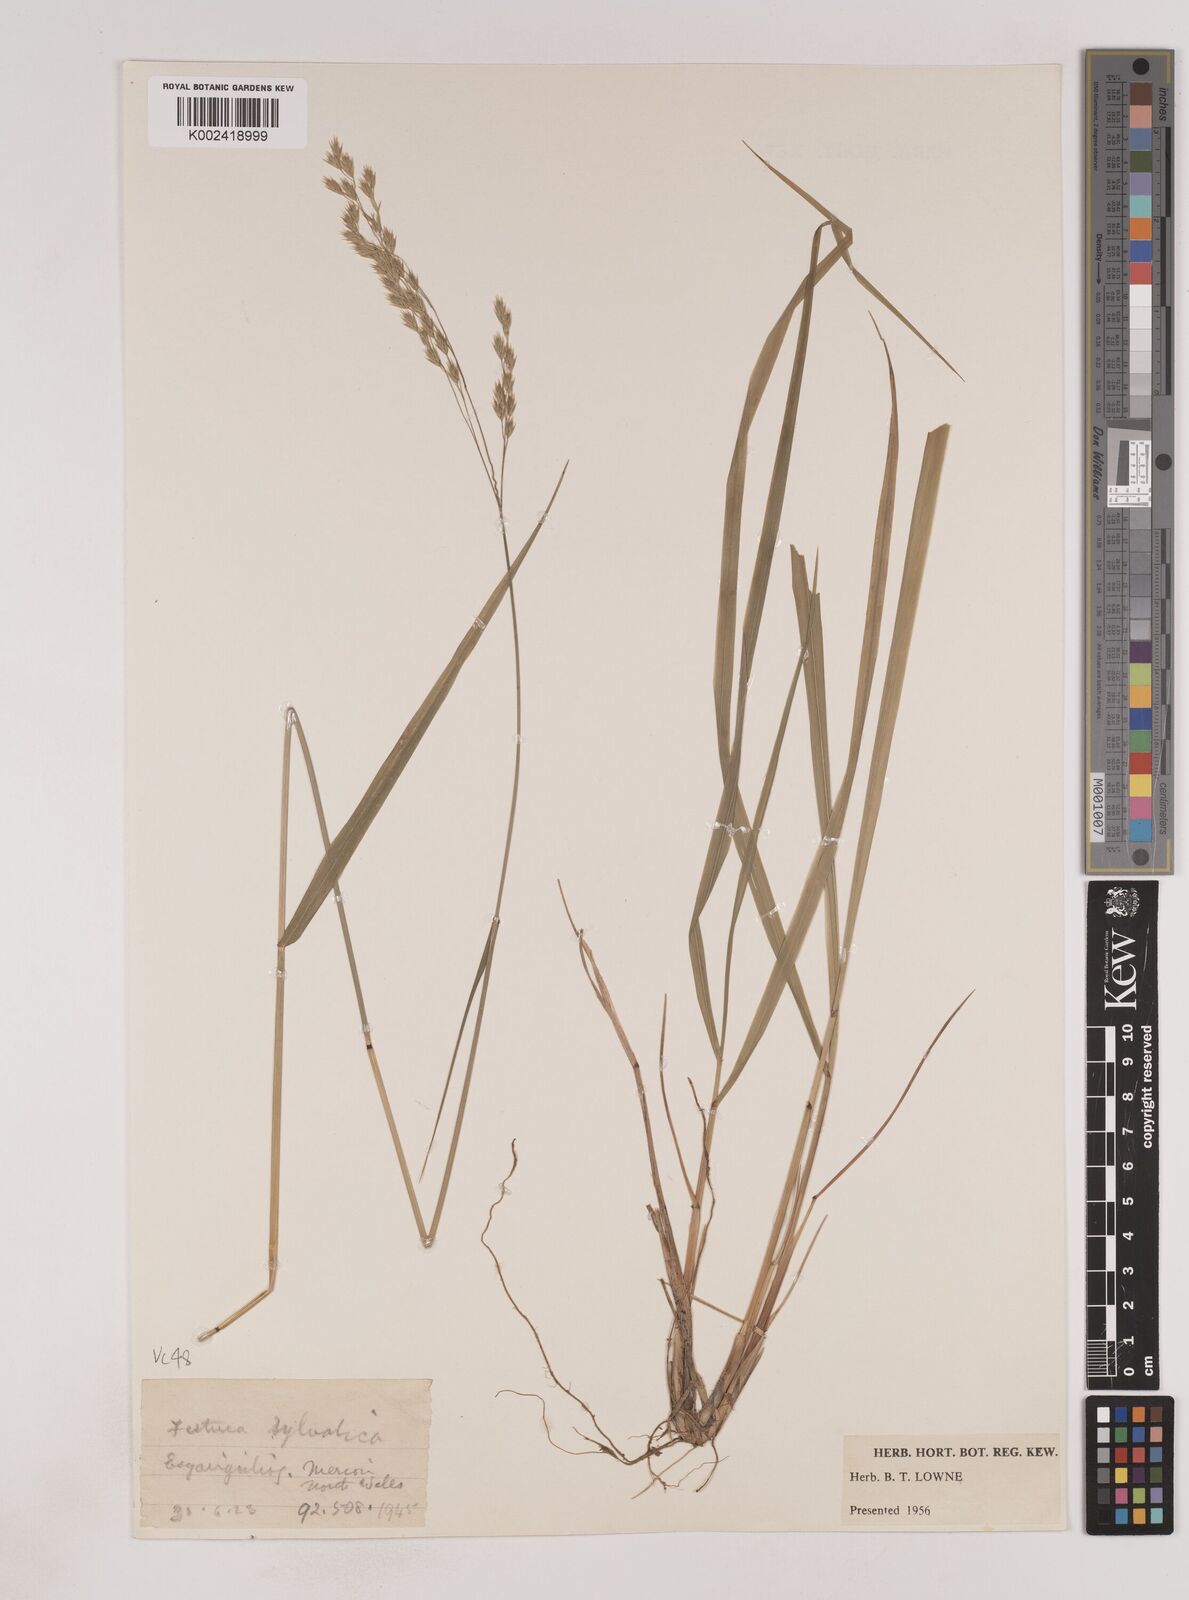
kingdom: Plantae
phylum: Tracheophyta
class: Liliopsida
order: Poales
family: Poaceae
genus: Festuca
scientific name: Festuca drymeja
